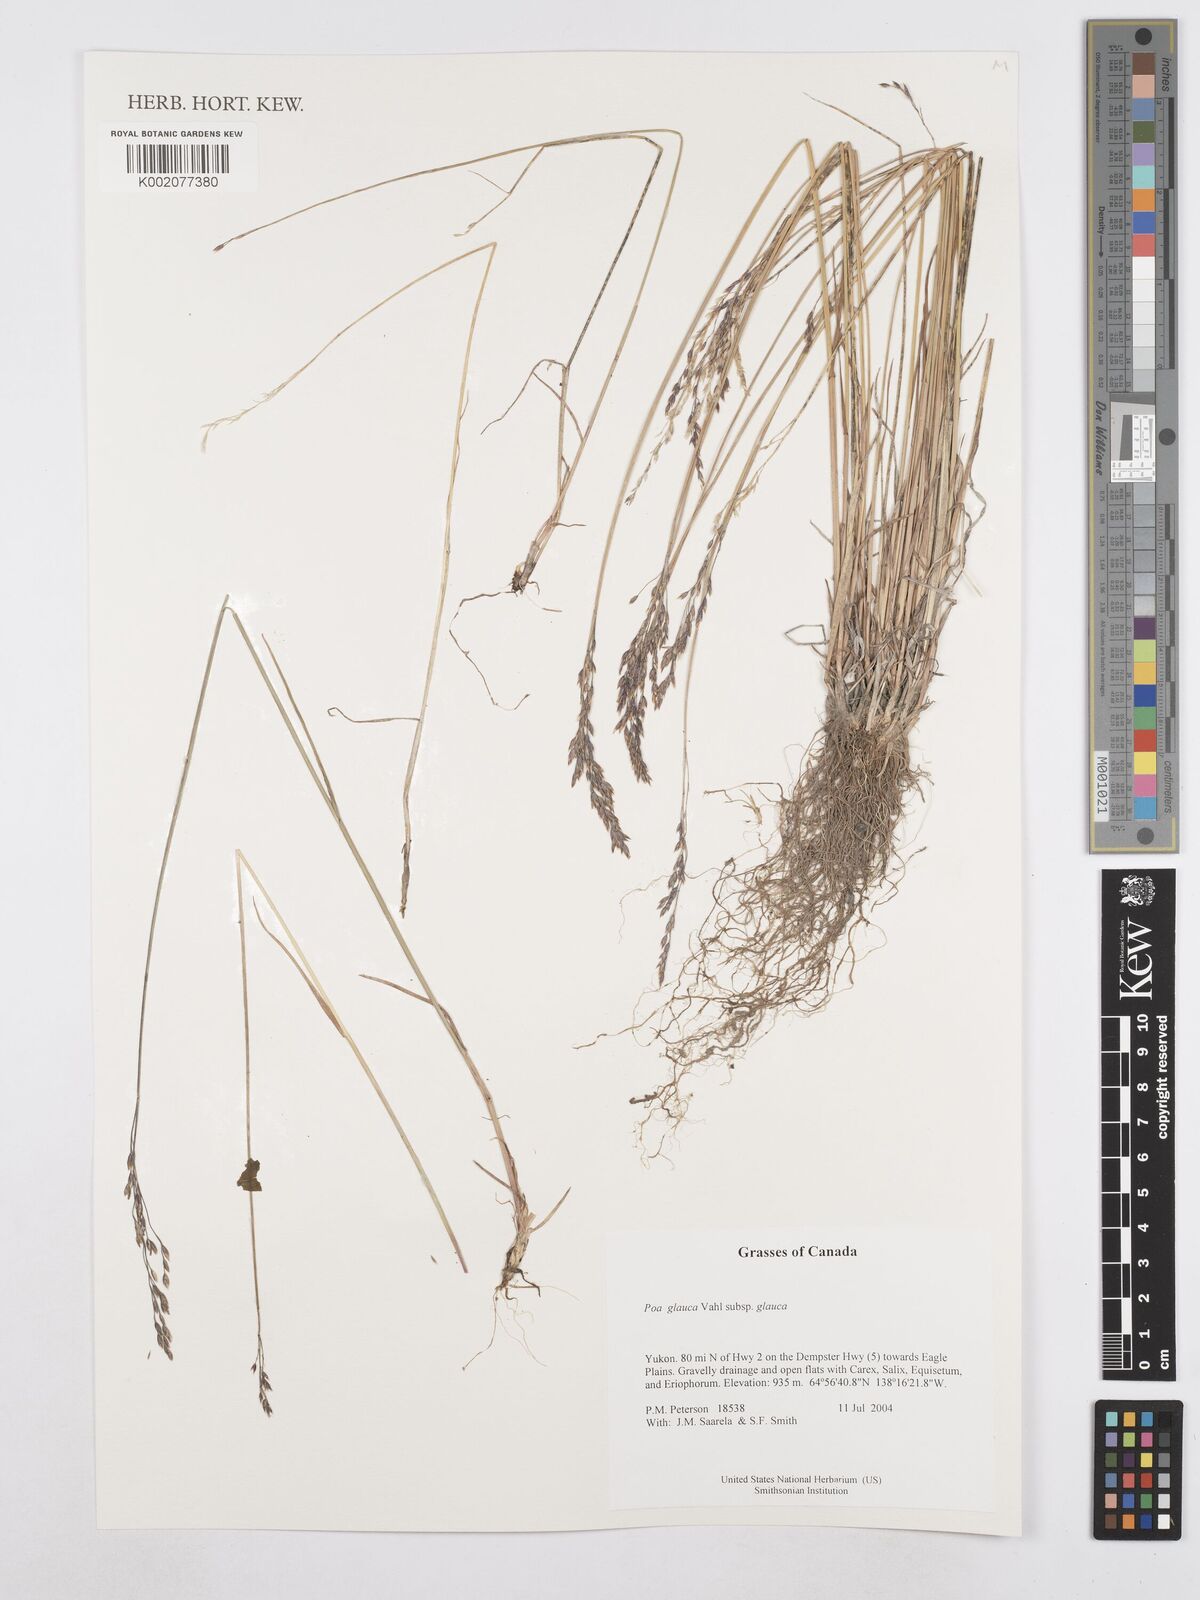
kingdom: Plantae
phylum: Tracheophyta
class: Liliopsida
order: Poales
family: Poaceae
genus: Poa
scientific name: Poa glauca
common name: Glaucous bluegrass
